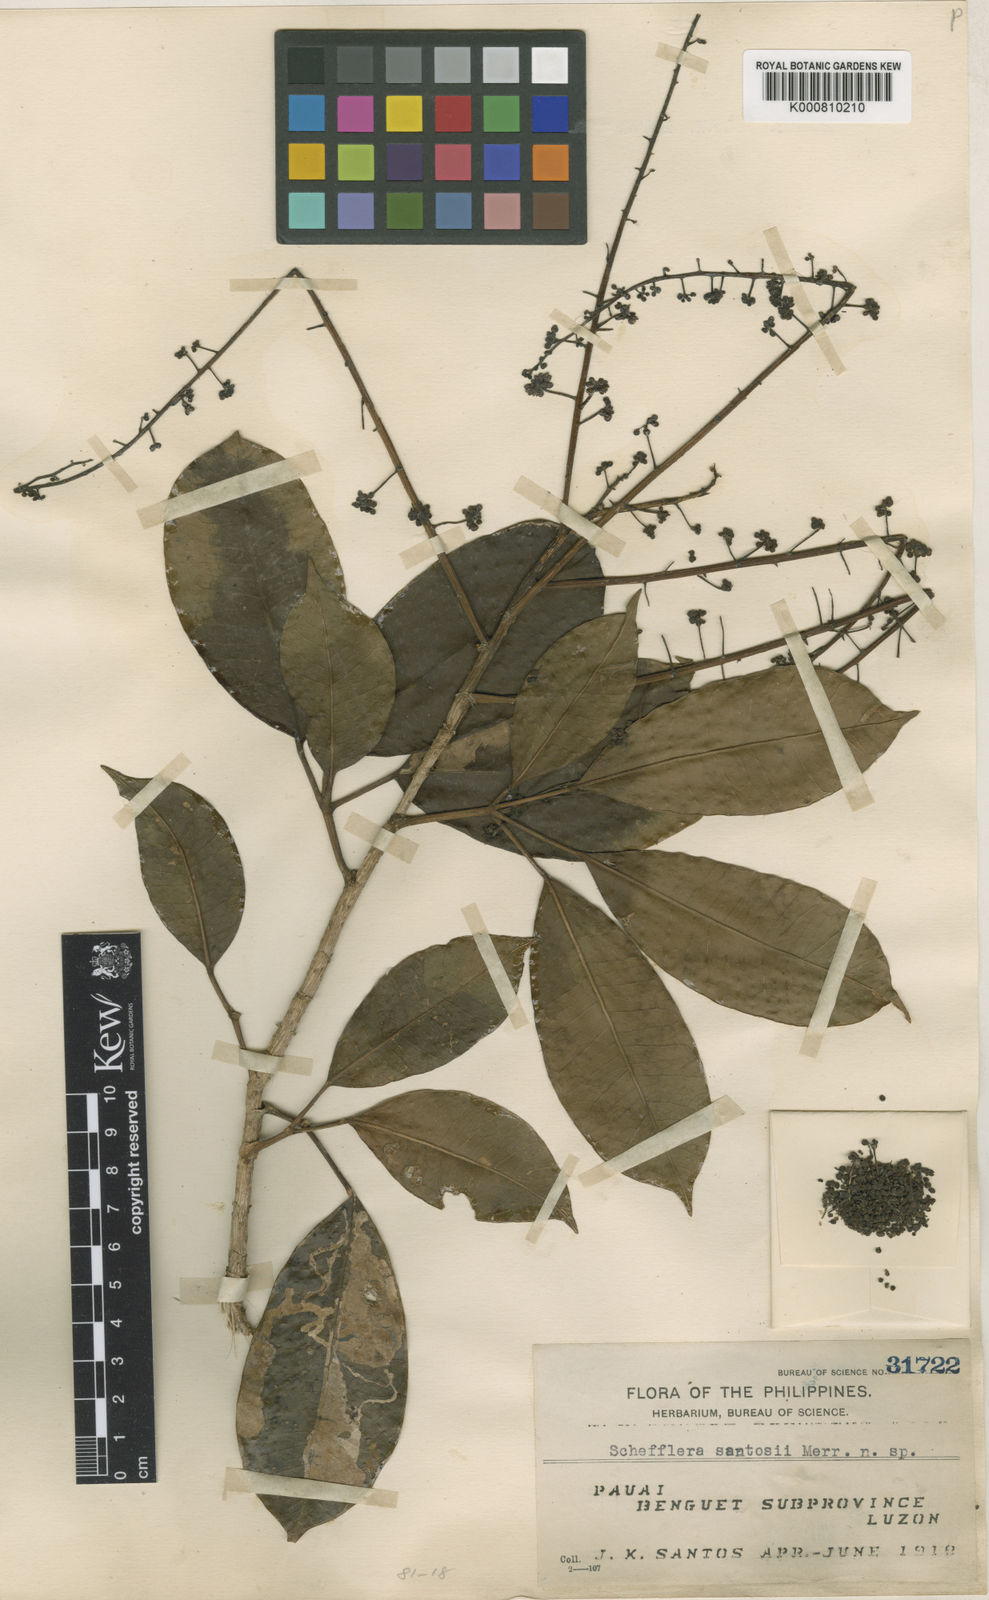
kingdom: Plantae
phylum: Tracheophyta
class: Magnoliopsida
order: Apiales
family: Araliaceae
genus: Heptapleurum
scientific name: Heptapleurum santosii
